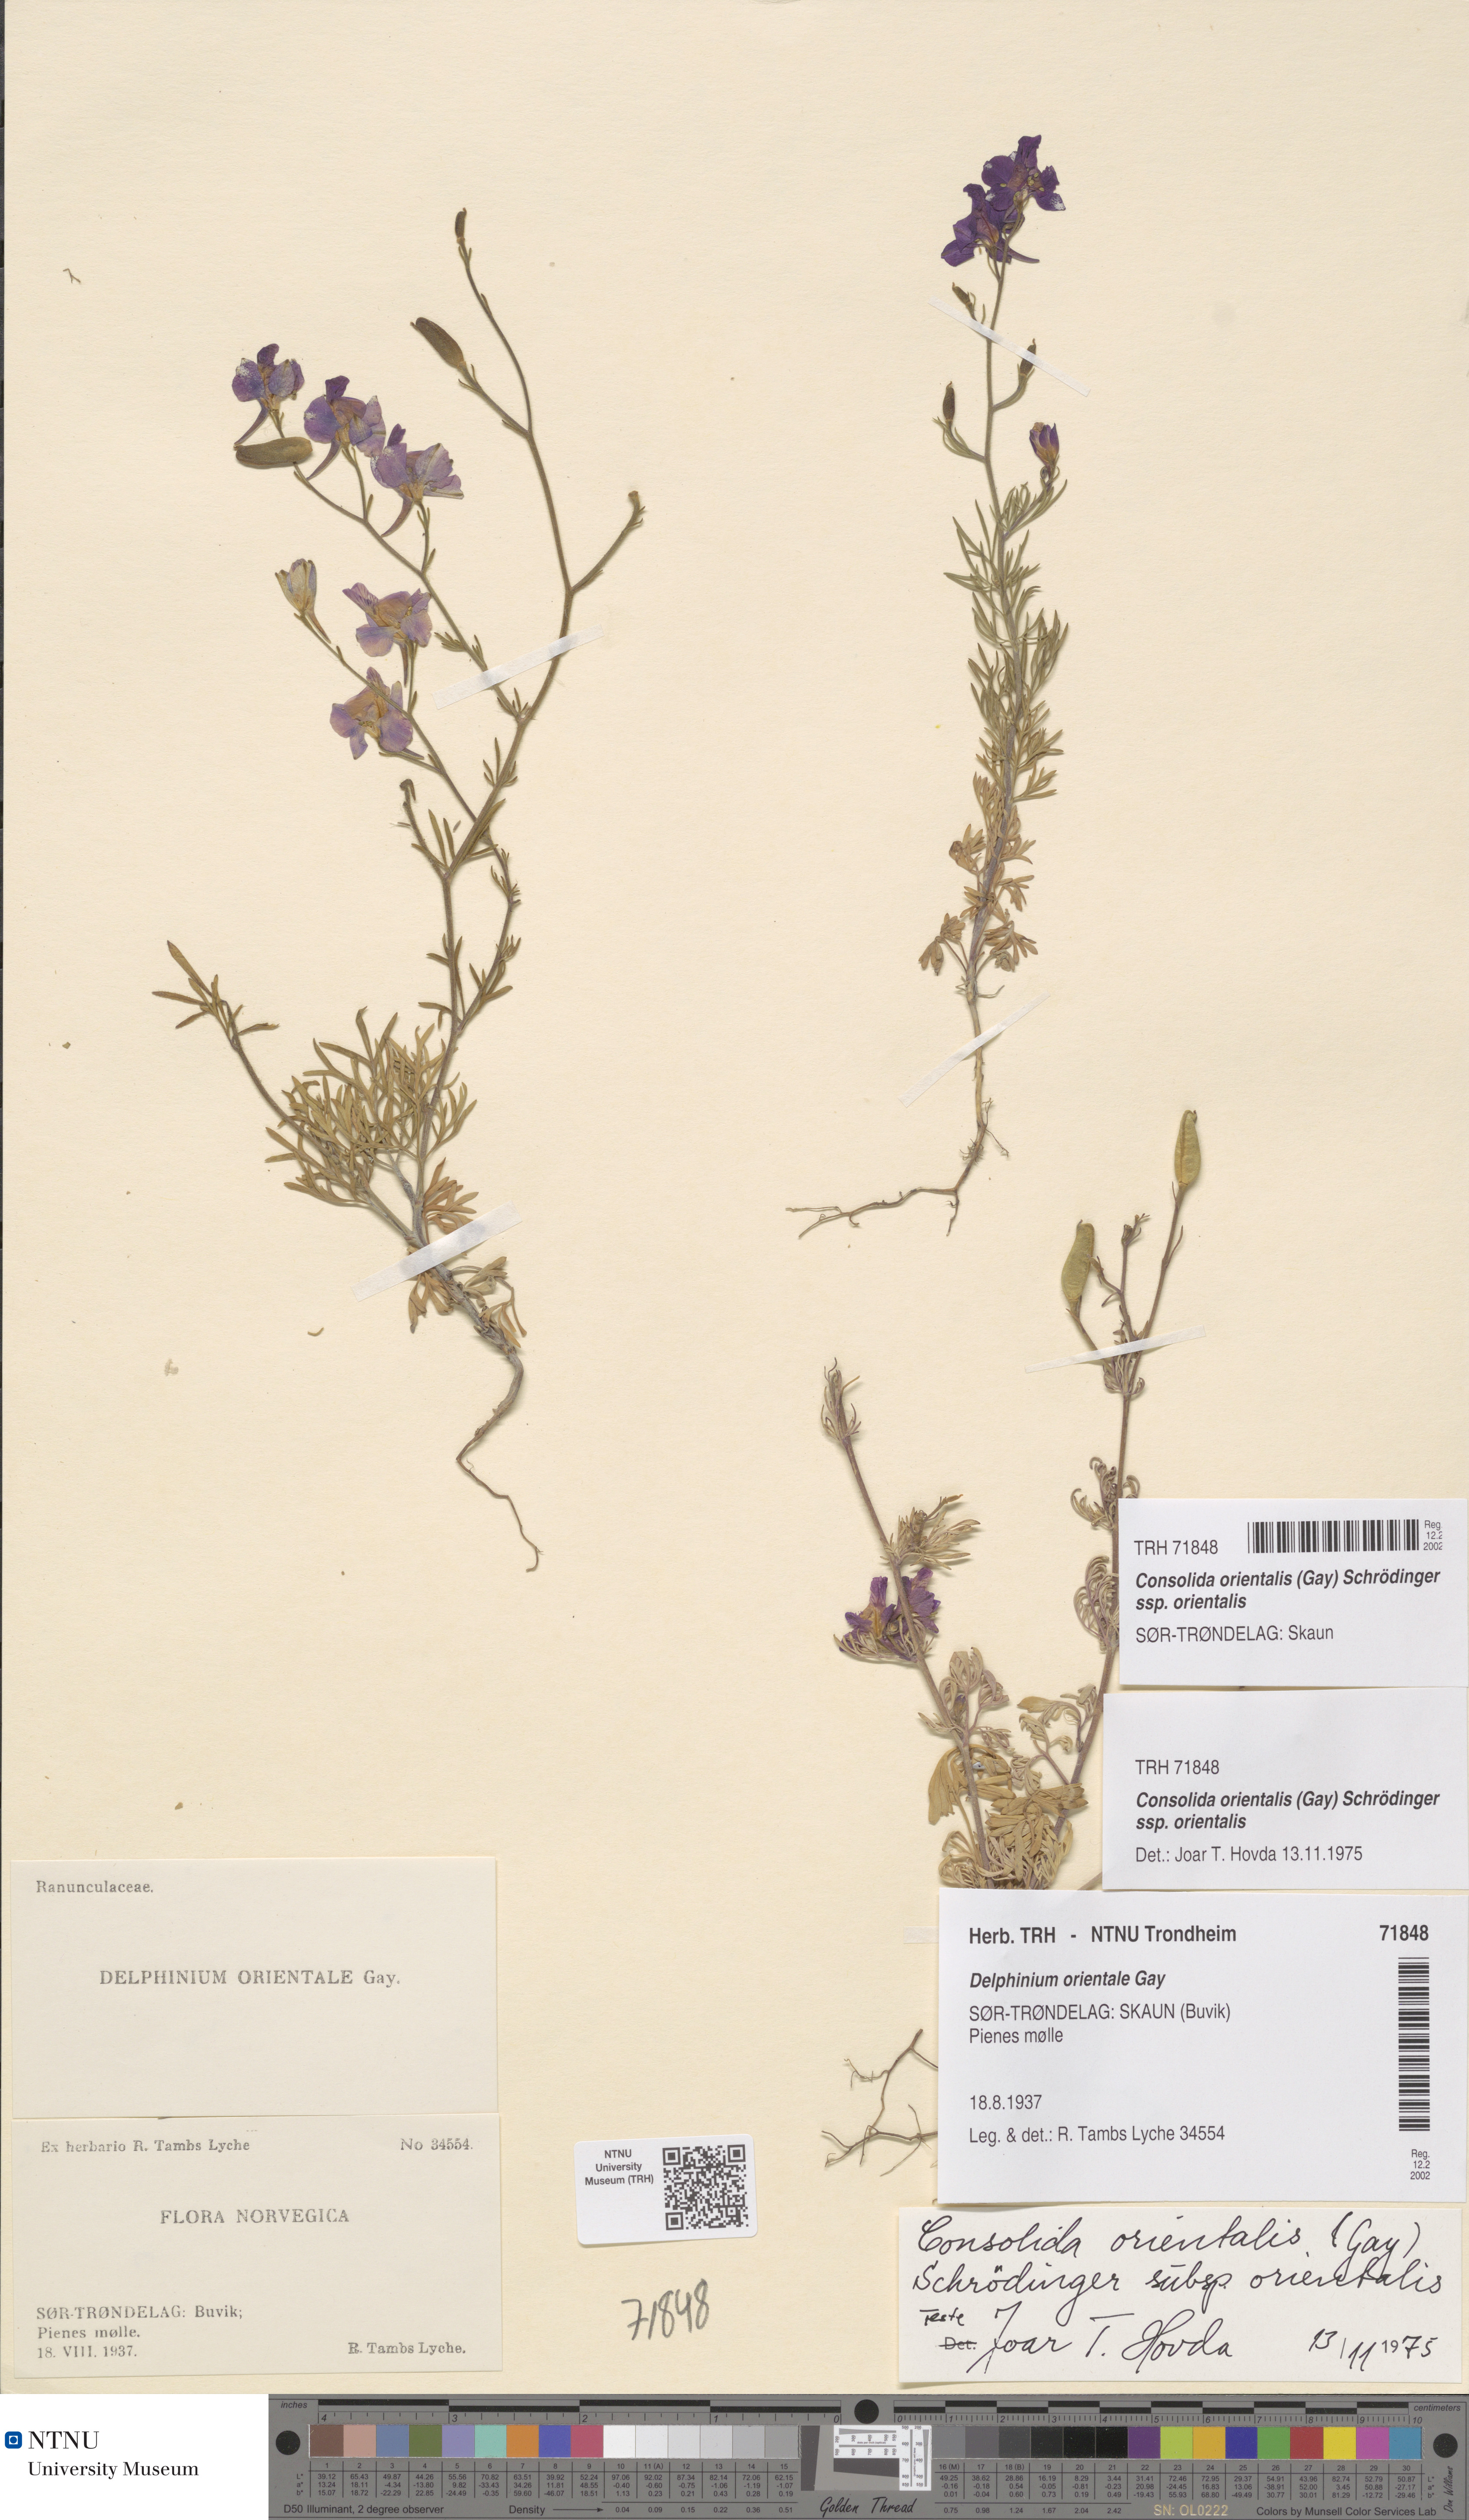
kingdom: Plantae
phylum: Tracheophyta
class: Magnoliopsida
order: Ranunculales
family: Ranunculaceae
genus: Delphinium
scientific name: Delphinium hispanicum
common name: Oriental knight's-spur
